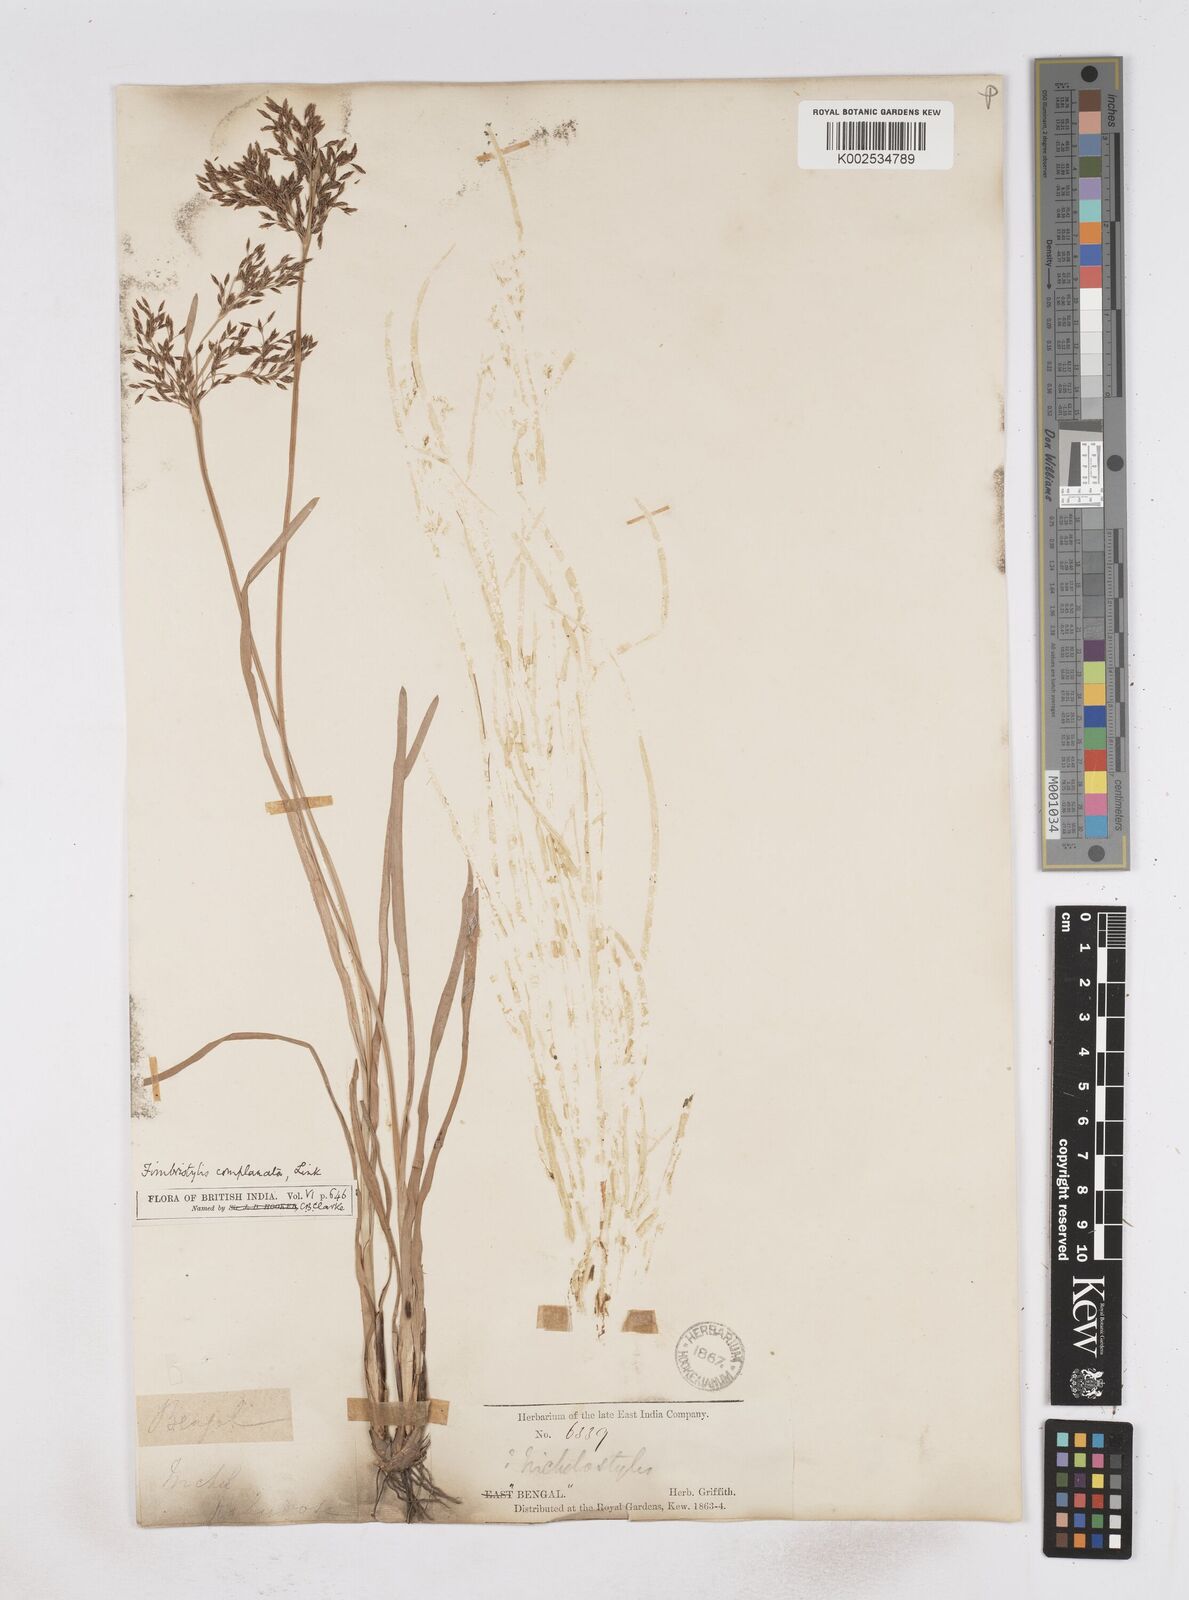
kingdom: Plantae
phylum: Tracheophyta
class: Liliopsida
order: Poales
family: Cyperaceae
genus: Fimbristylis
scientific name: Fimbristylis complanata
